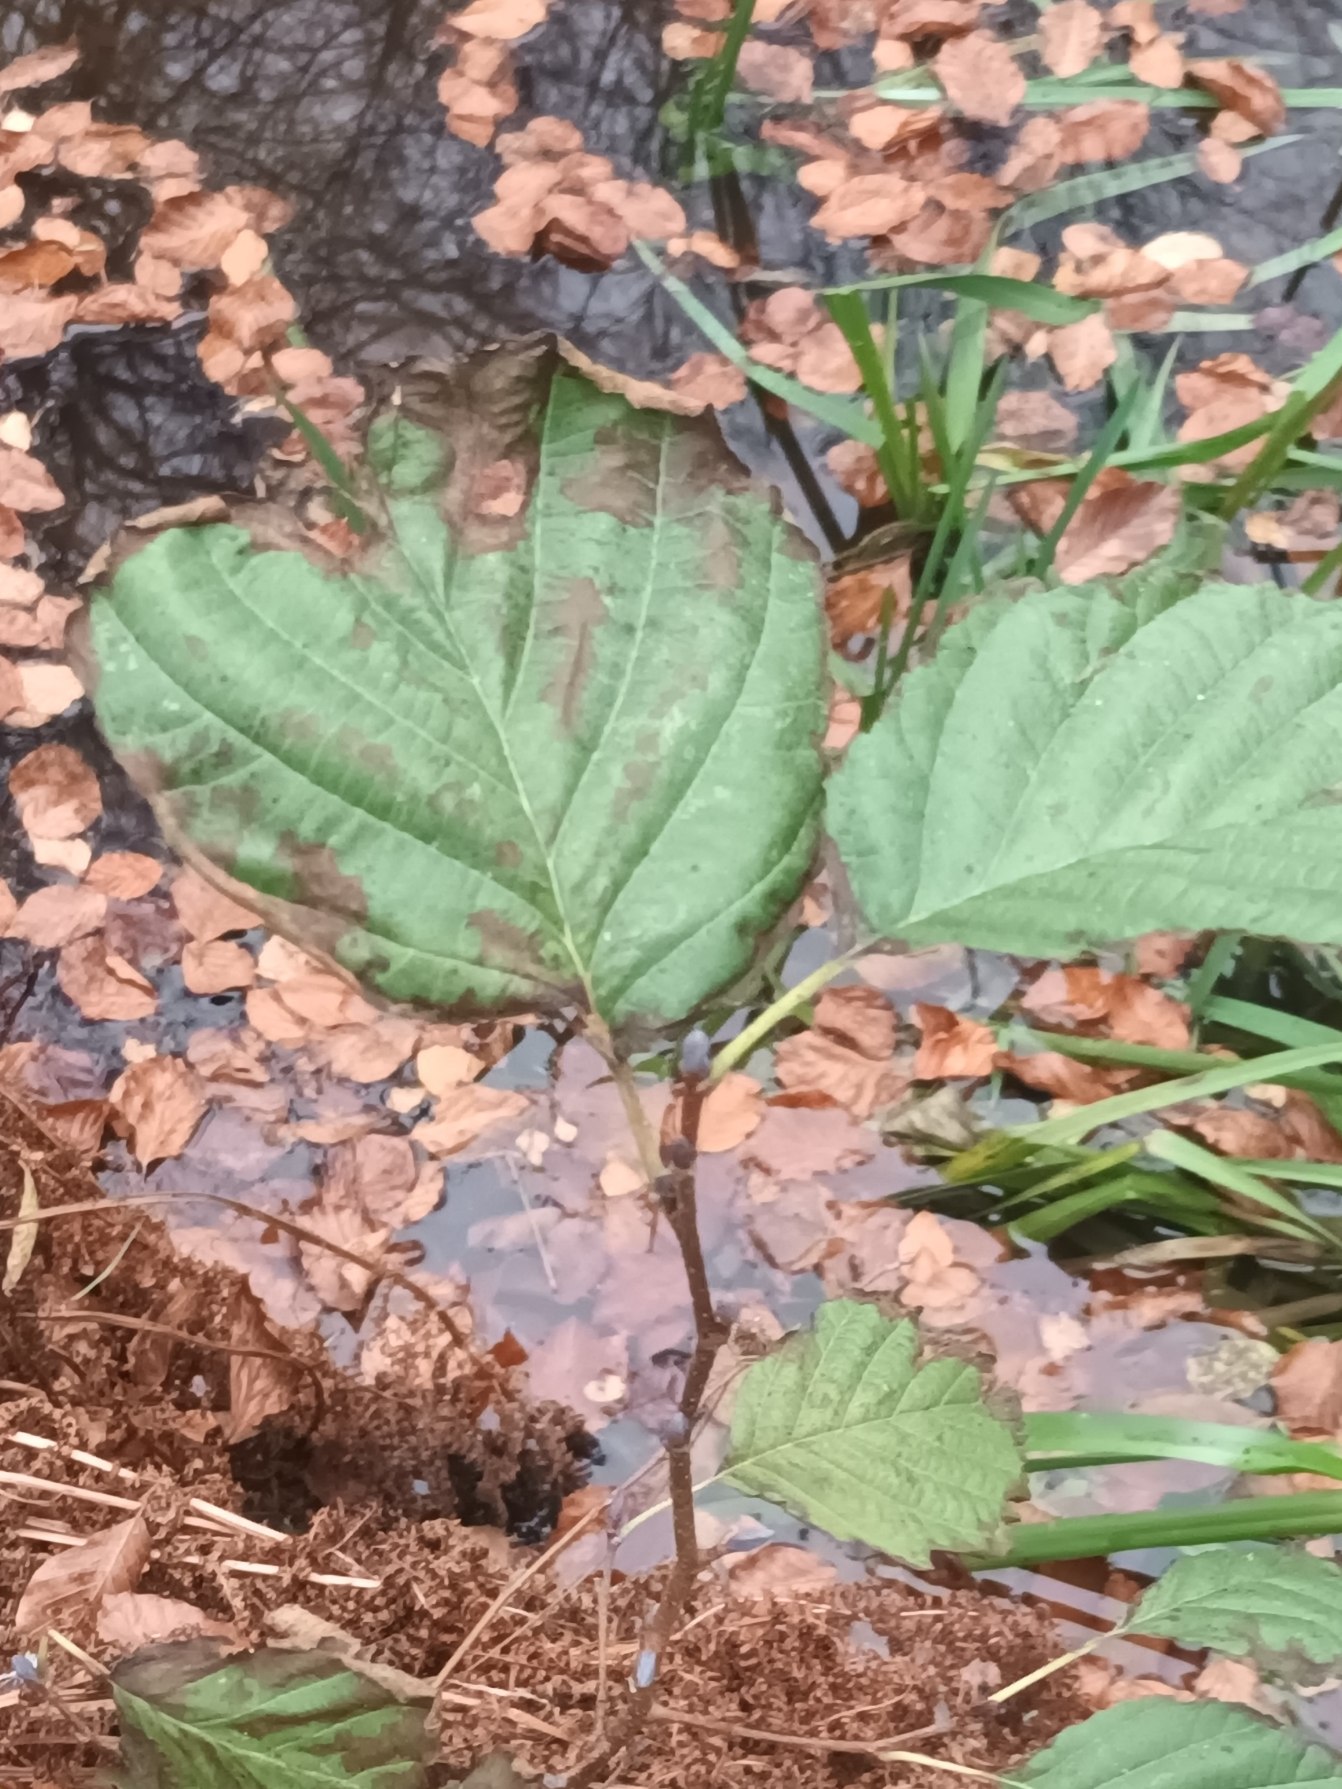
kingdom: Plantae
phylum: Tracheophyta
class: Magnoliopsida
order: Fagales
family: Betulaceae
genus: Alnus
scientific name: Alnus glutinosa
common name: Rød-el
